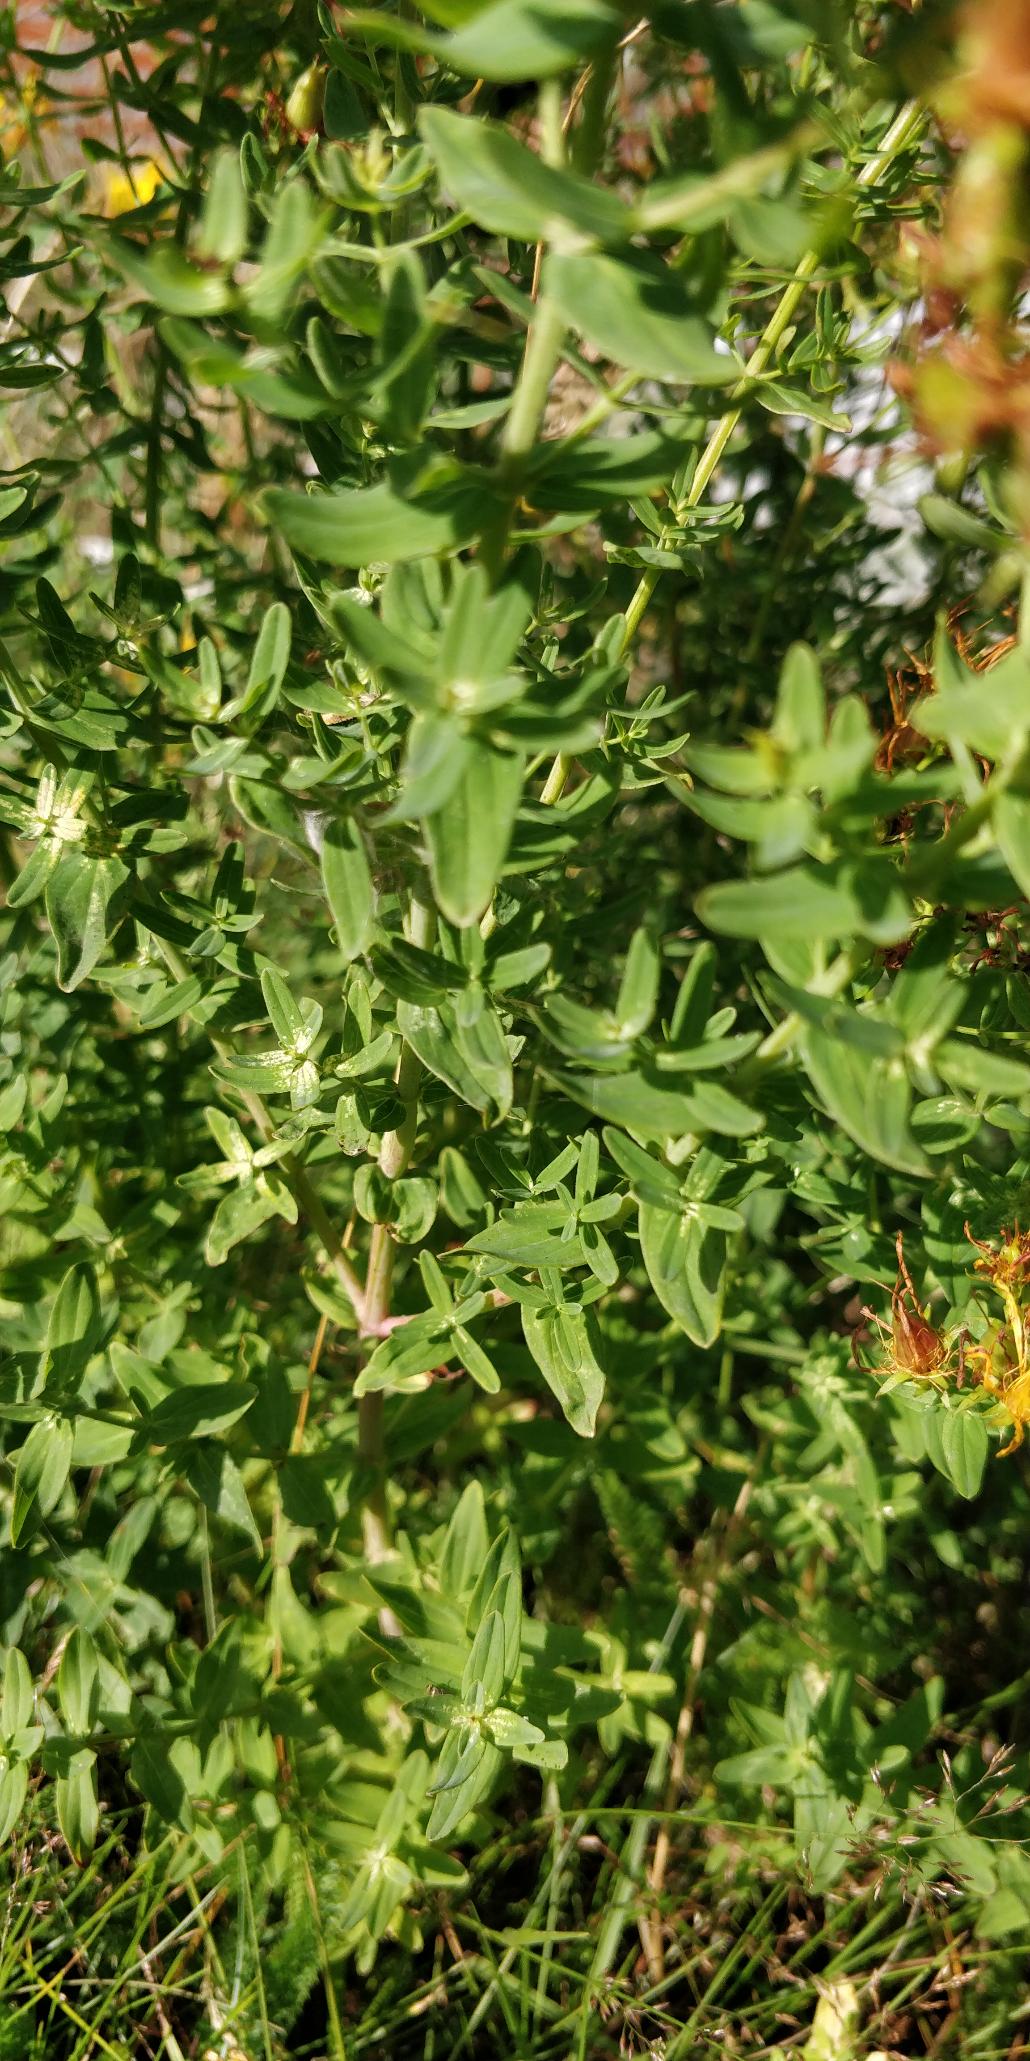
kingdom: Plantae
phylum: Tracheophyta
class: Magnoliopsida
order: Malpighiales
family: Hypericaceae
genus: Hypericum
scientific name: Hypericum perforatum
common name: Prikbladet perikon
